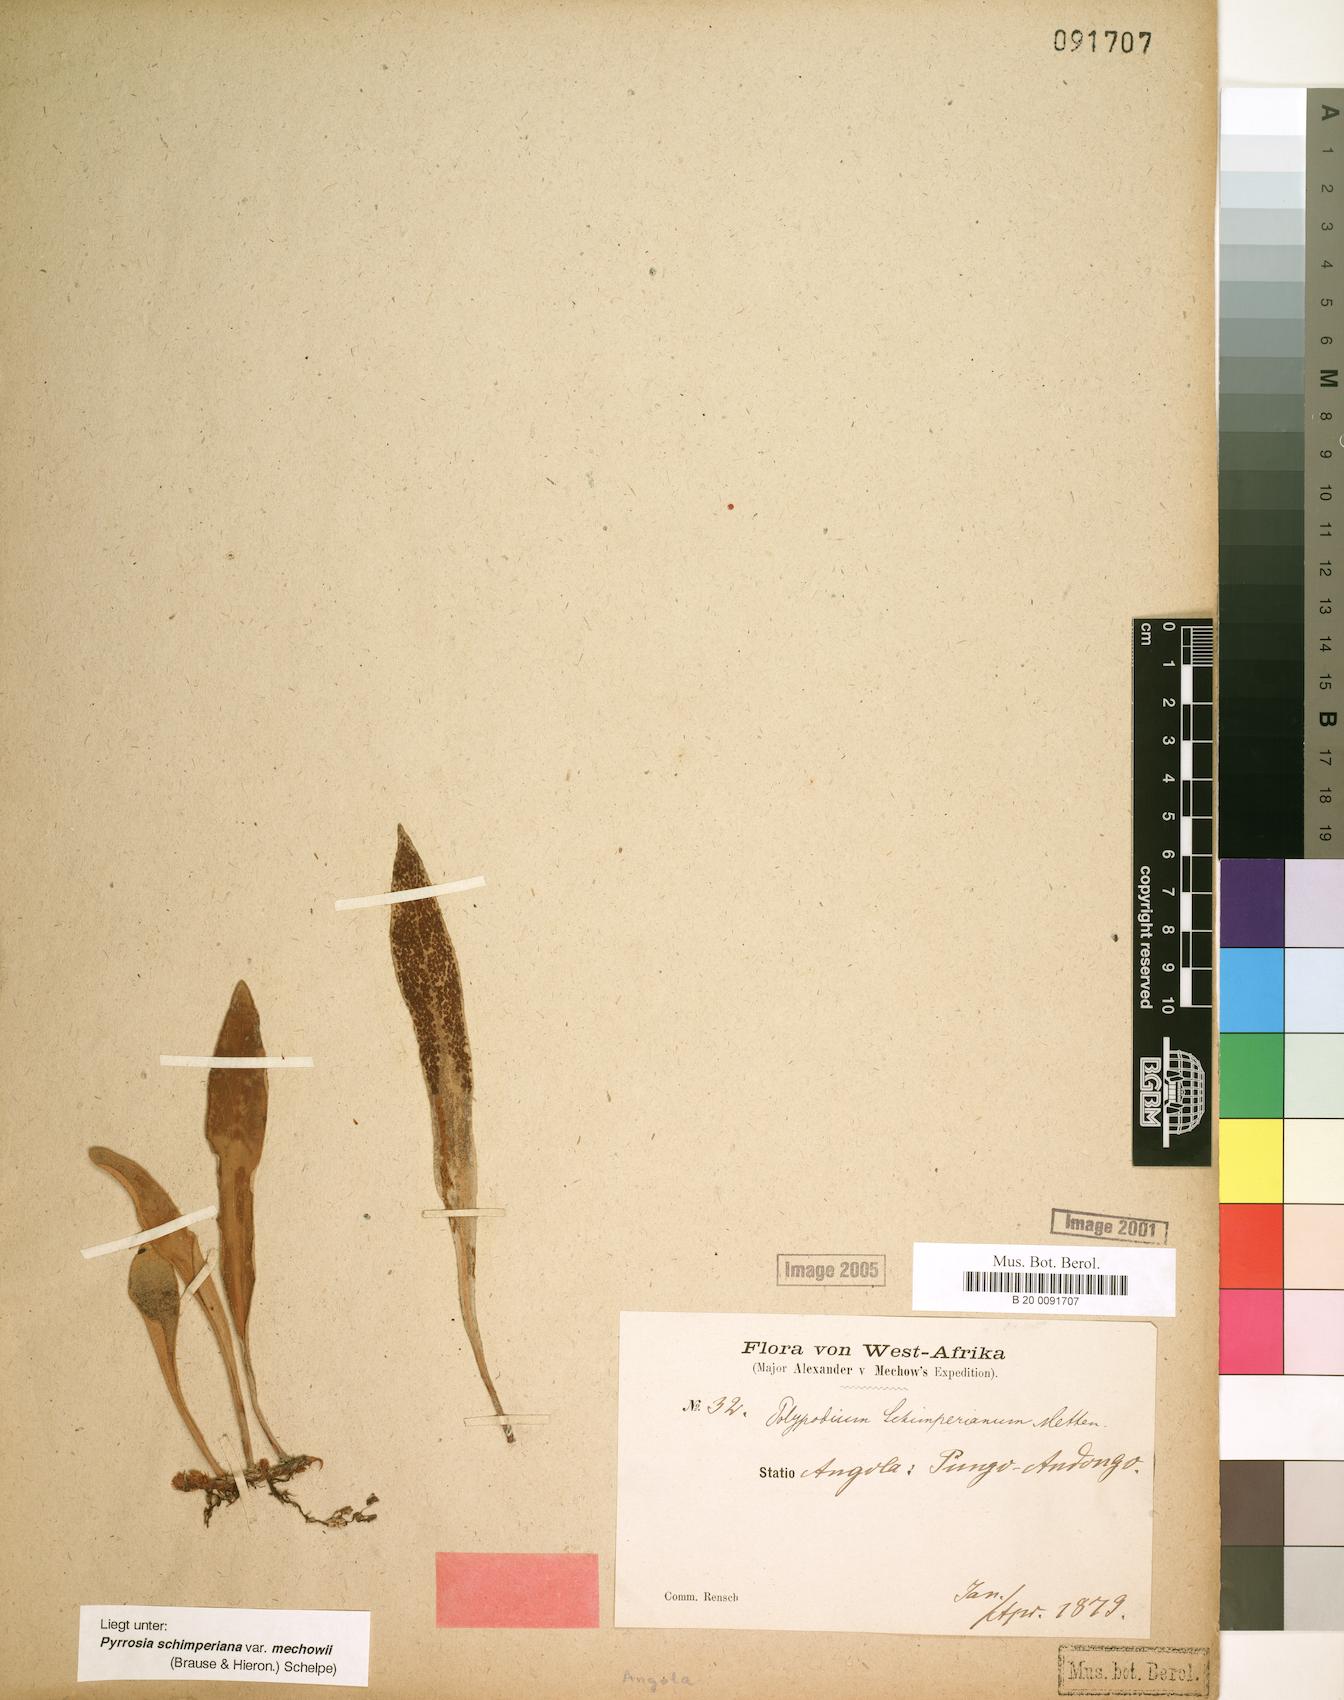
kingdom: Plantae
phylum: Tracheophyta
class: Polypodiopsida
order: Polypodiales
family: Polypodiaceae
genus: Hovenkampia
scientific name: Hovenkampia schimperiana
